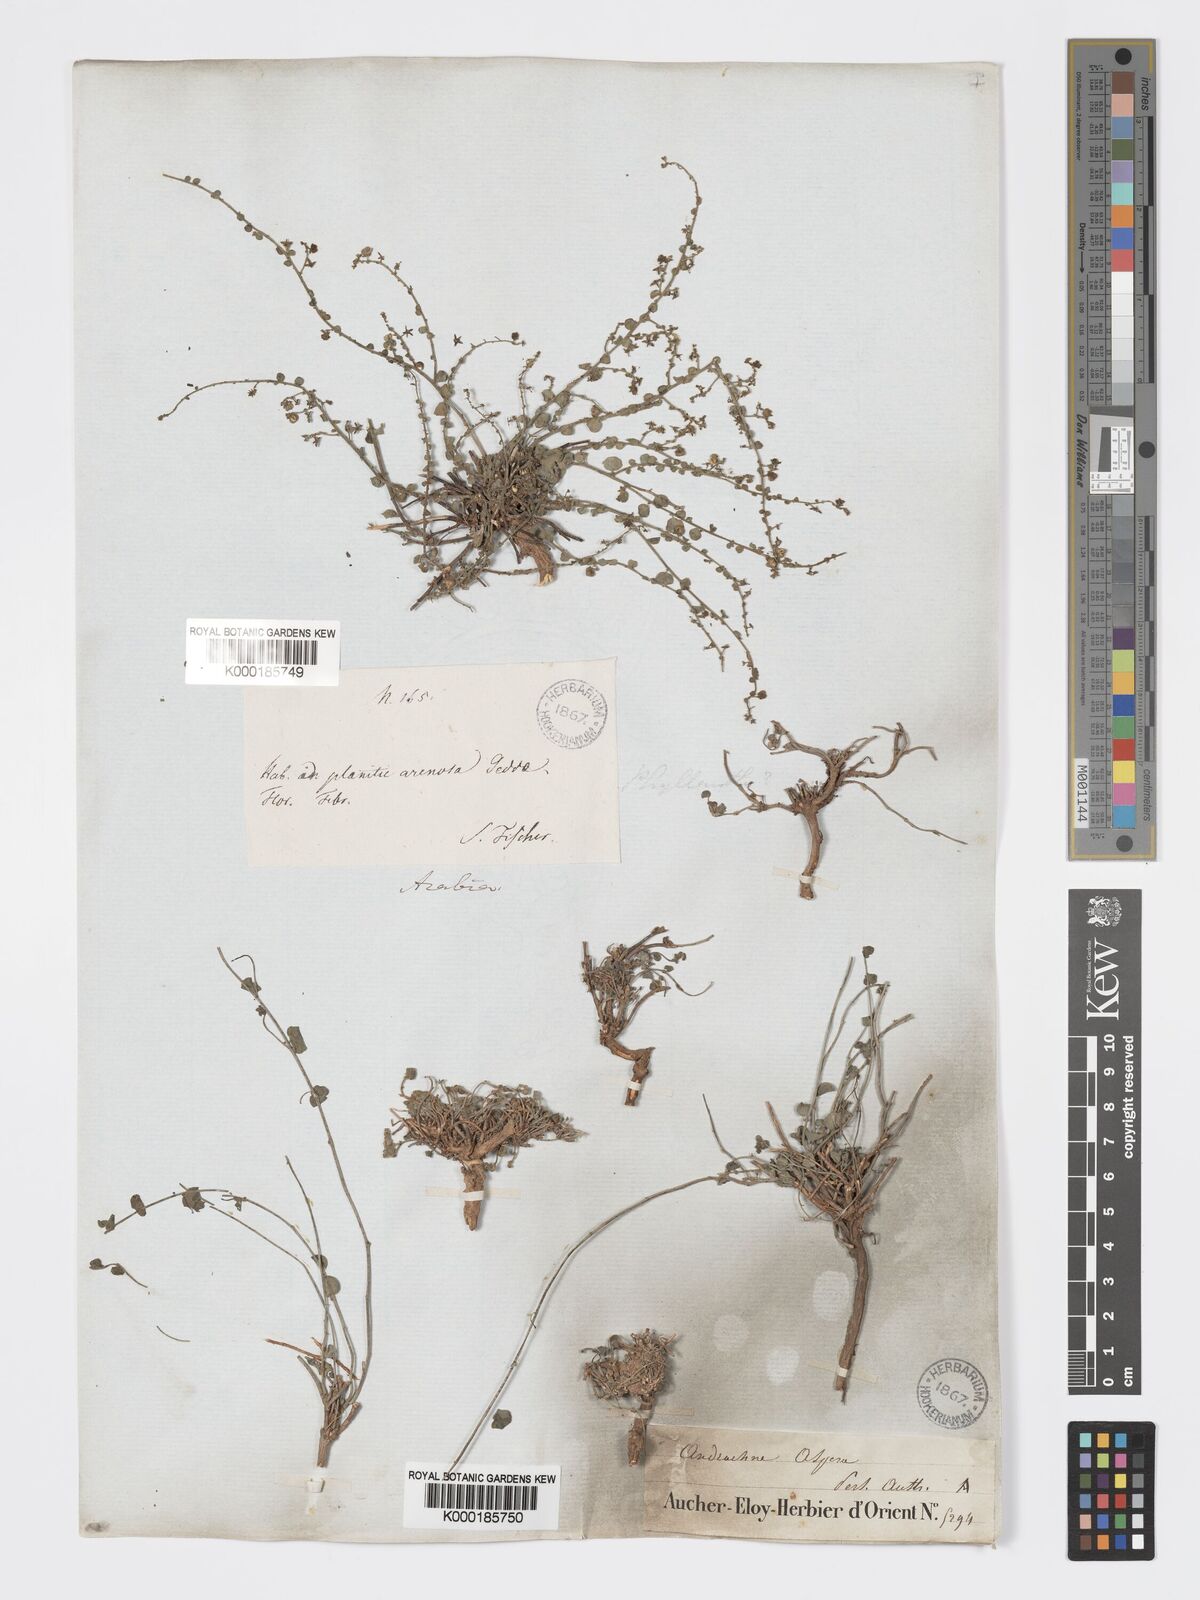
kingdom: Plantae
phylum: Tracheophyta
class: Magnoliopsida
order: Malpighiales
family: Phyllanthaceae
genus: Andrachne
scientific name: Andrachne aspera
